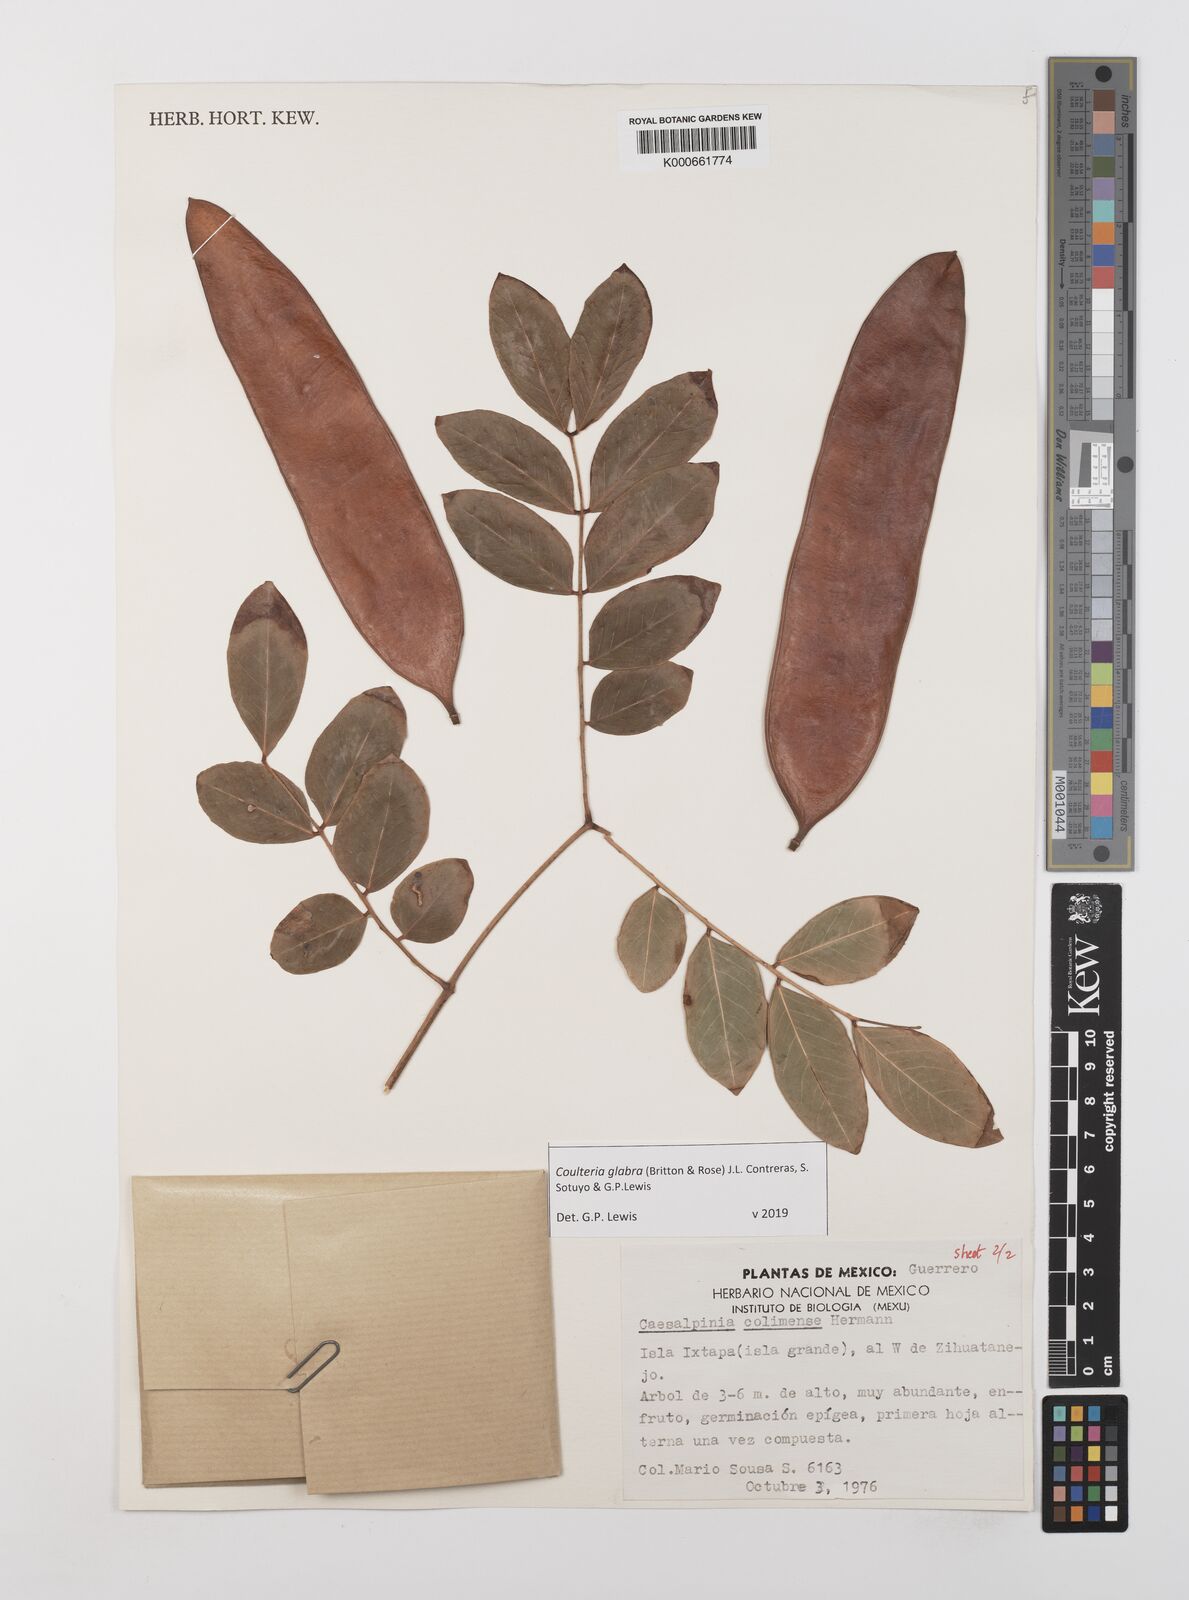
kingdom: Plantae
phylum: Tracheophyta
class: Magnoliopsida
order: Fabales
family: Fabaceae
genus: Coulteria
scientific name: Coulteria glabra
